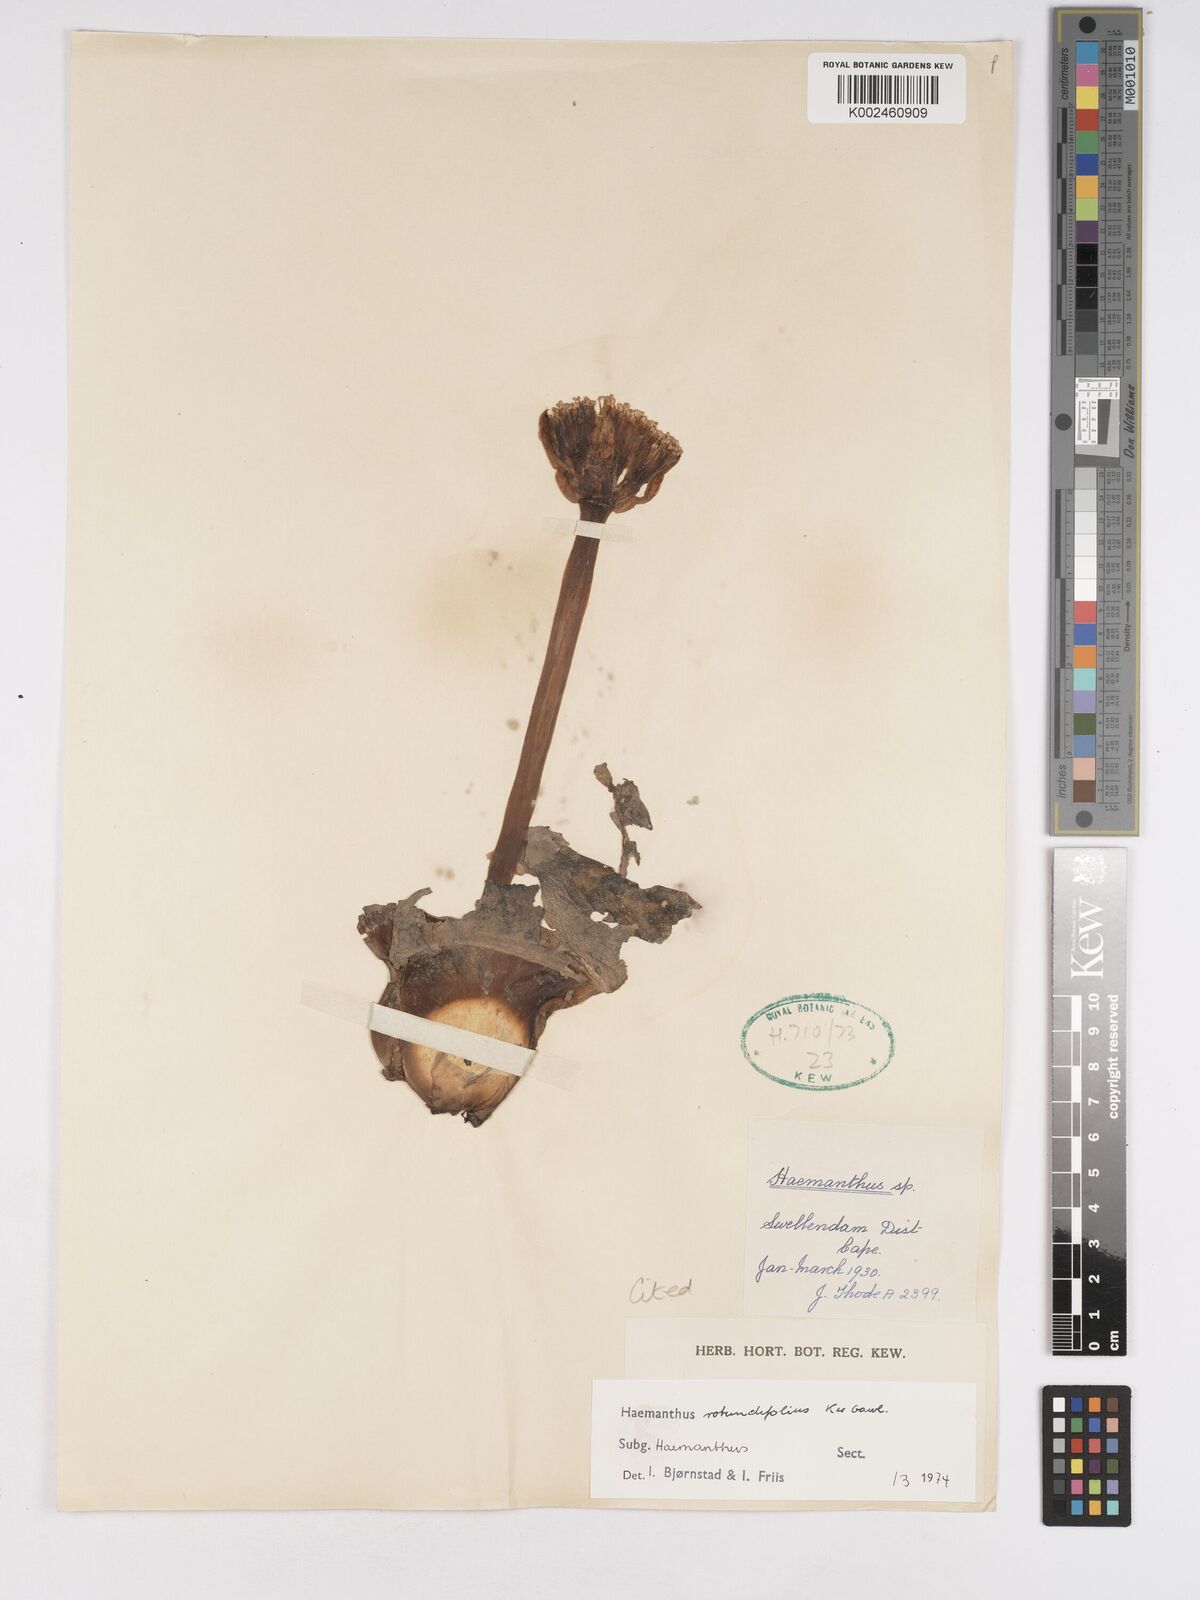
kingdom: Plantae
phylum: Tracheophyta
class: Liliopsida
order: Asparagales
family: Amaryllidaceae
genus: Haemanthus
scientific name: Haemanthus sanguineus
